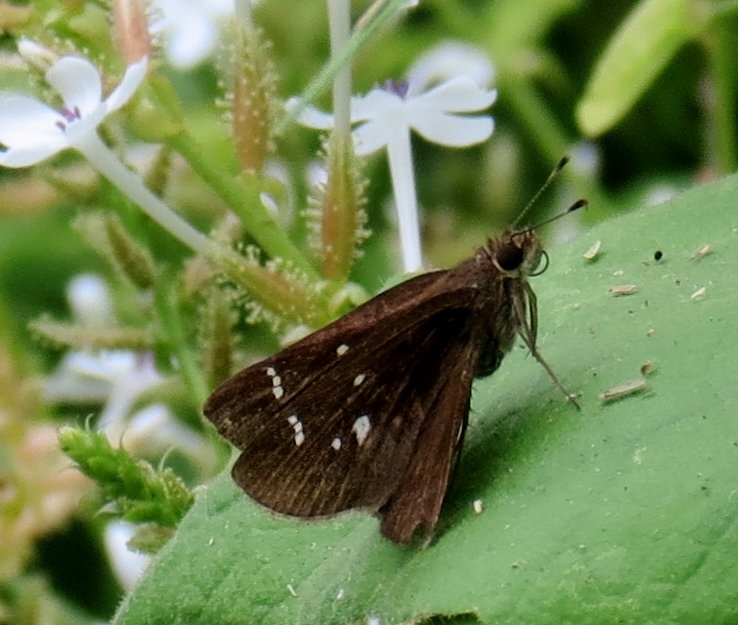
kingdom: Animalia
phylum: Arthropoda
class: Insecta
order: Lepidoptera
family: Hesperiidae
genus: Lerema
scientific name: Lerema accius
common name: Clouded Skipper
